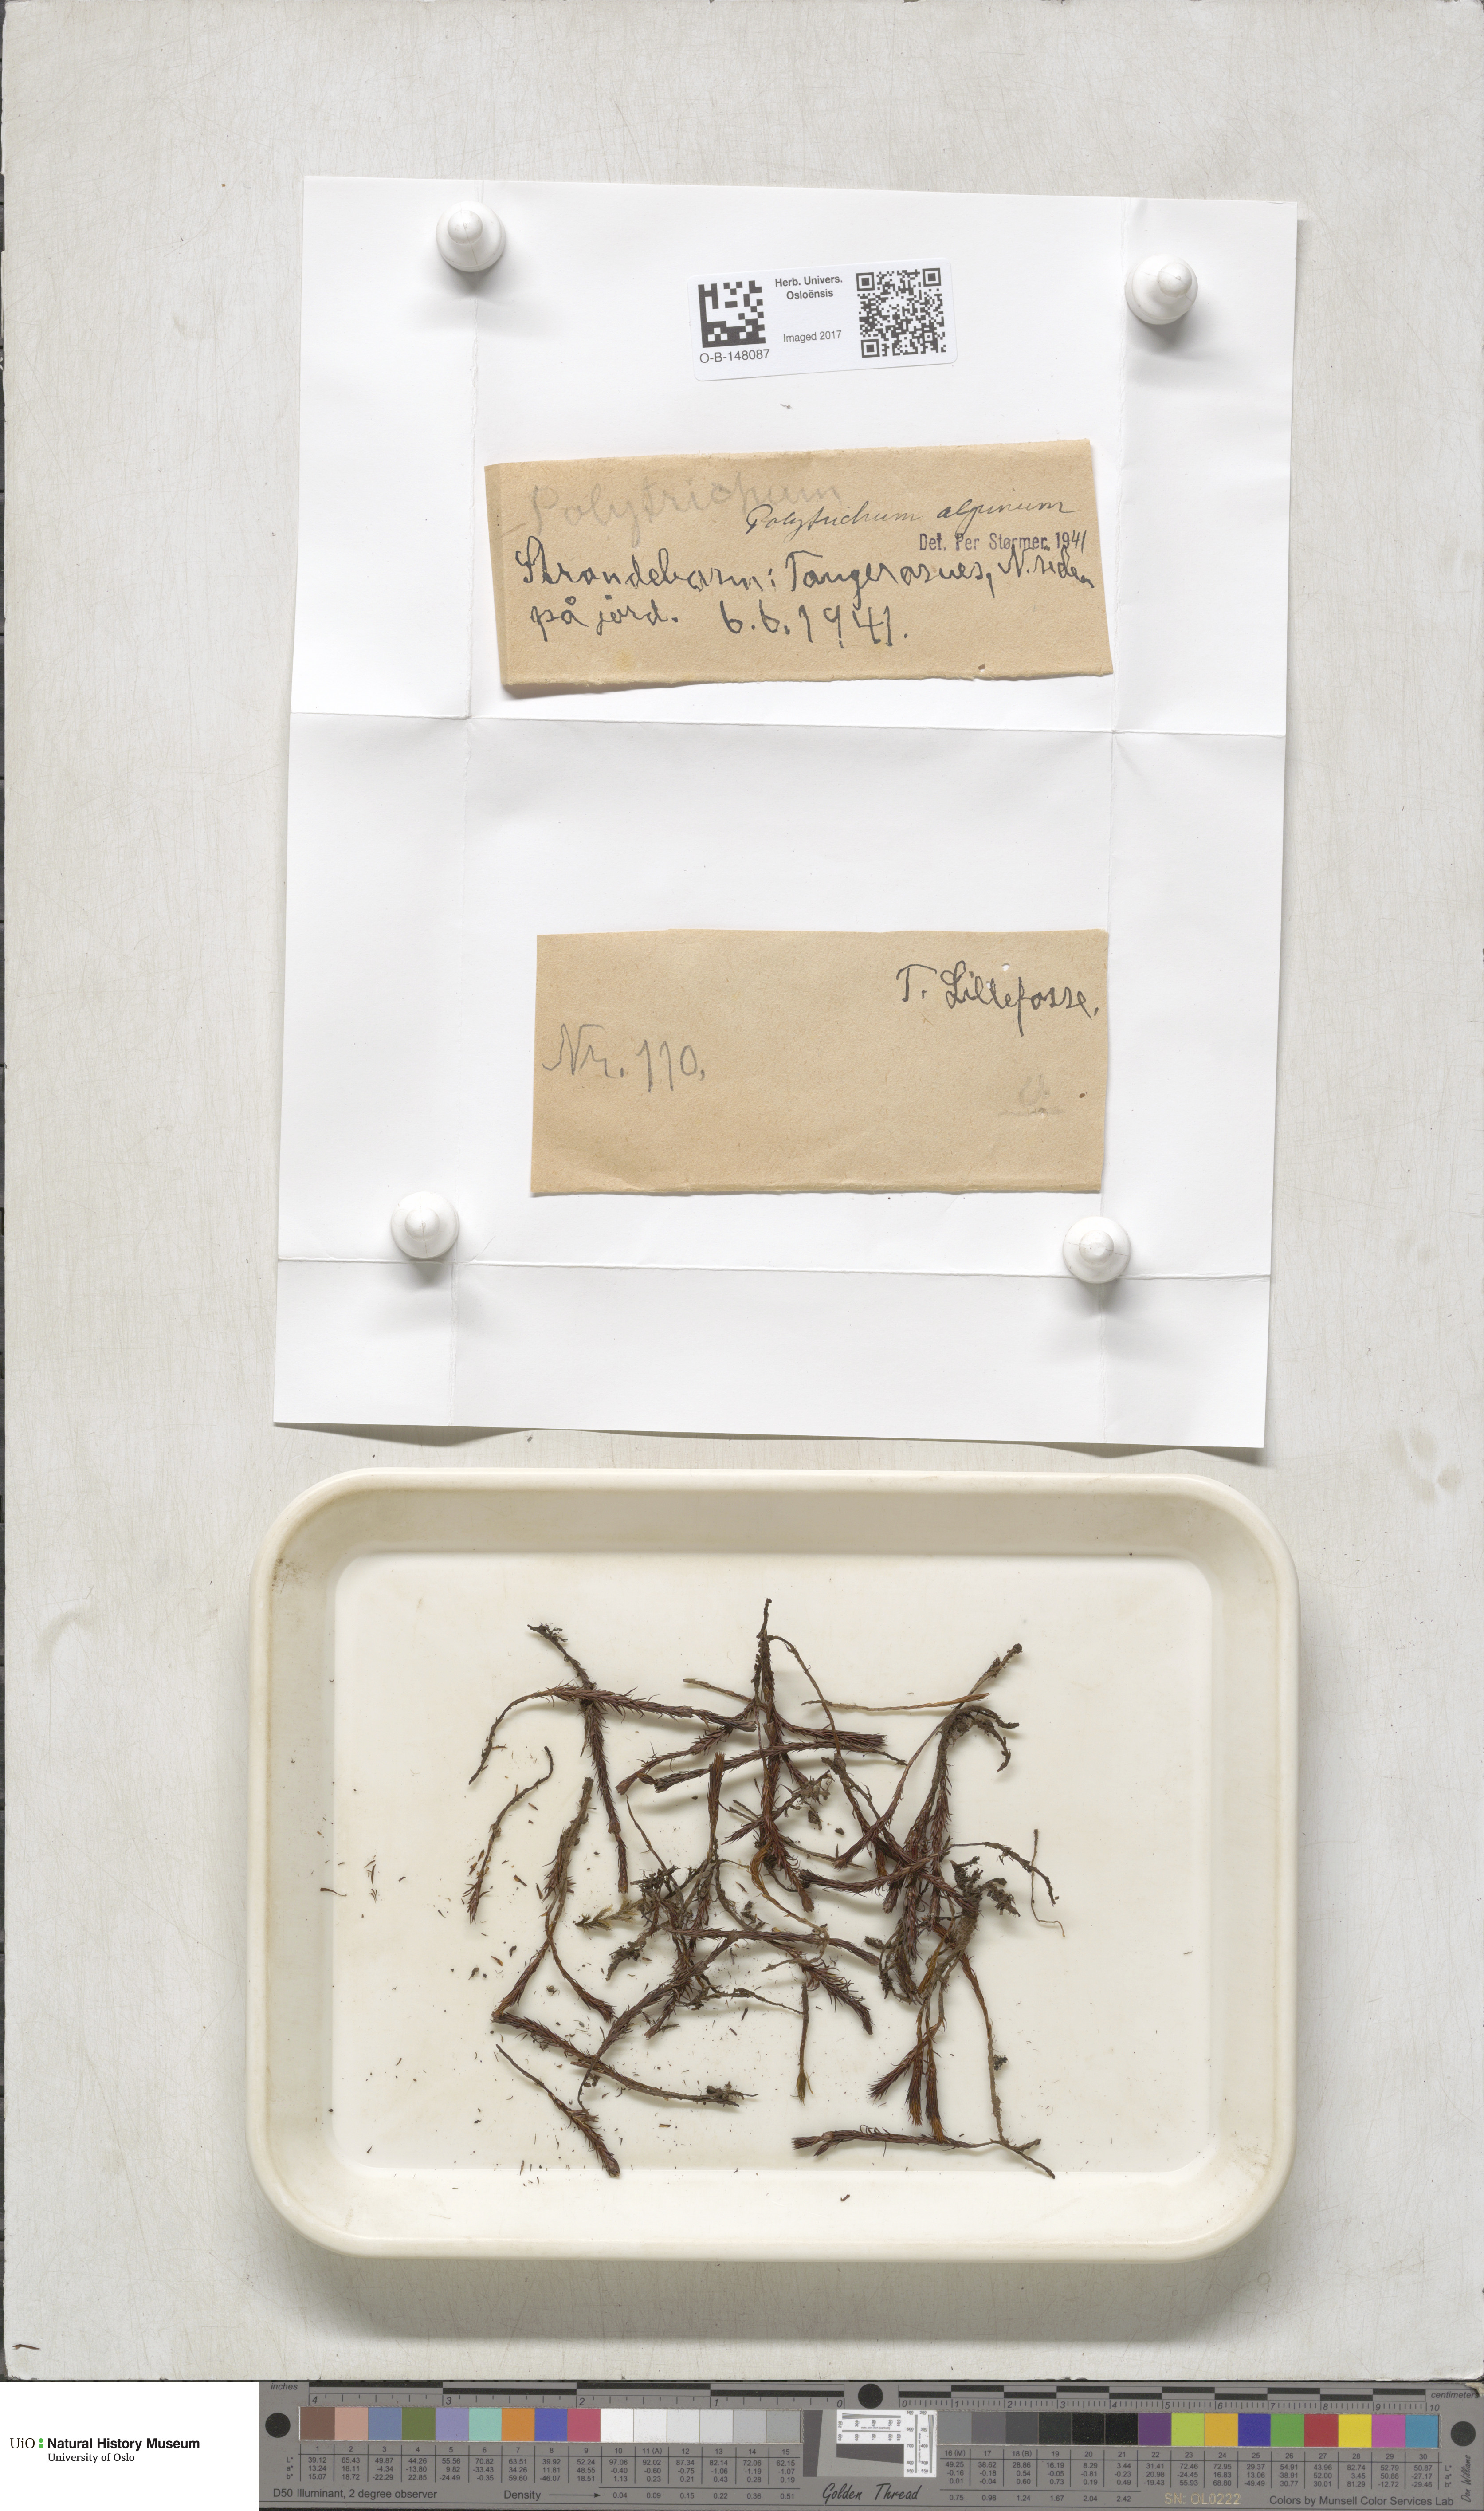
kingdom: Plantae
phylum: Bryophyta
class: Polytrichopsida
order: Polytrichales
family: Polytrichaceae
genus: Polytrichastrum
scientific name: Polytrichastrum alpinum
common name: Alpine haircap
